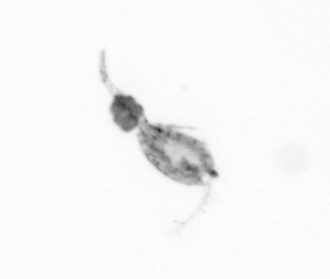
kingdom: Animalia
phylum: Arthropoda
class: Copepoda
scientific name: Copepoda
